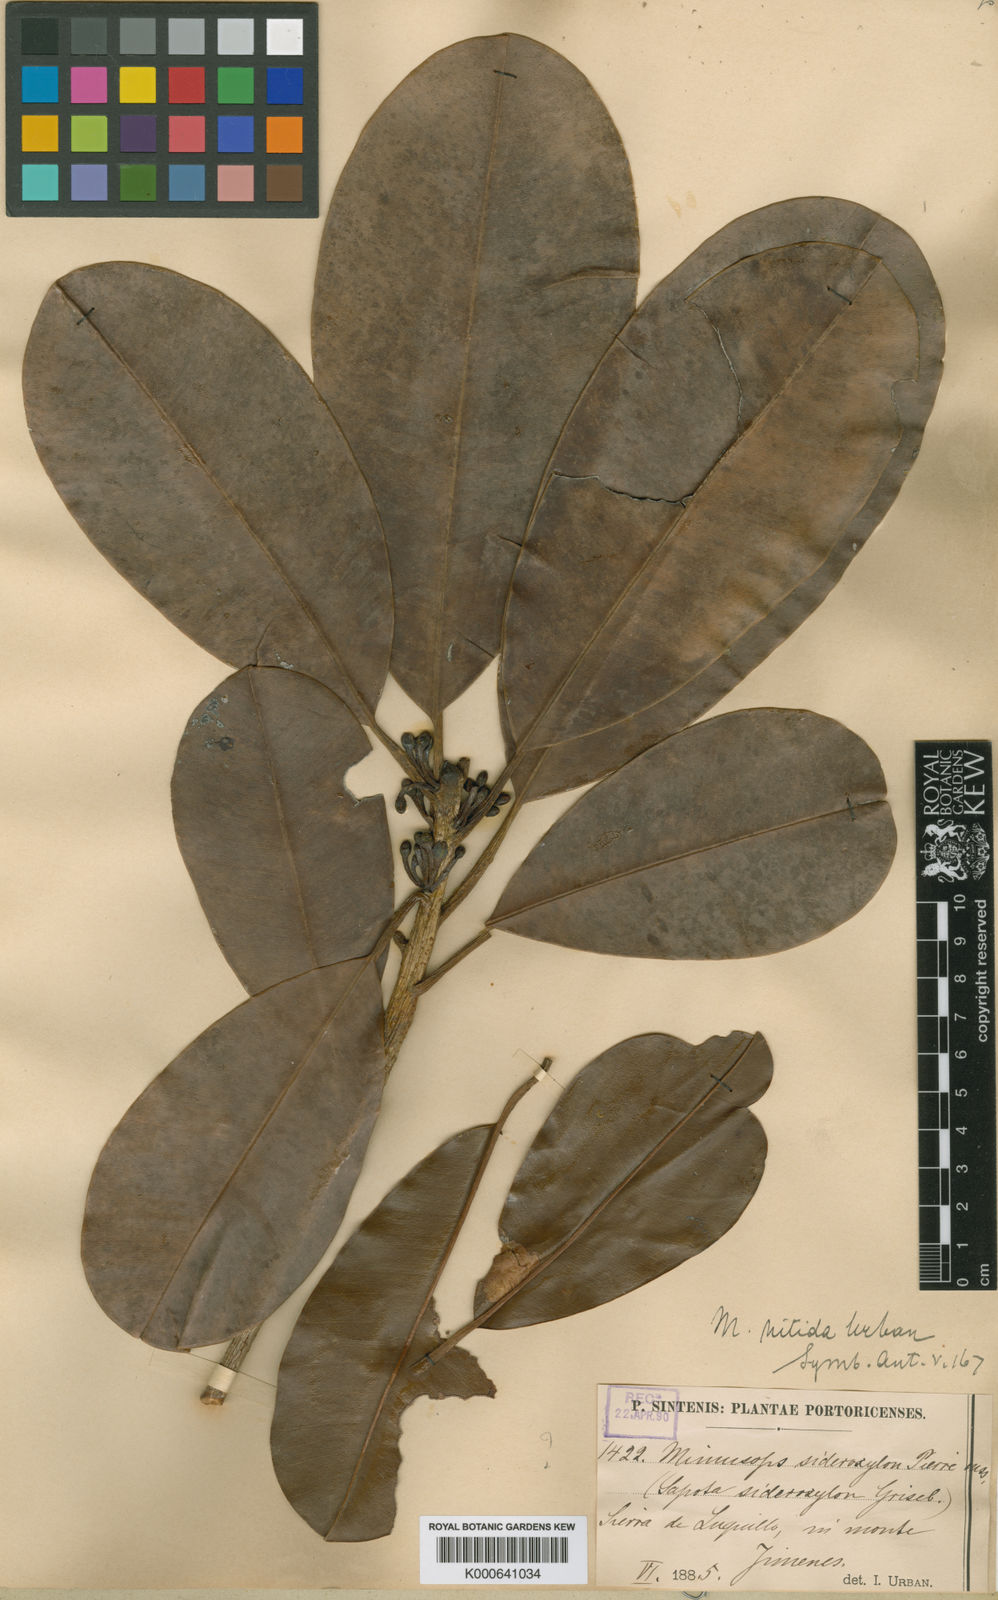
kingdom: Plantae
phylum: Tracheophyta
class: Magnoliopsida
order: Ericales
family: Sapotaceae
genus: Manilkara
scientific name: Manilkara bidentata
